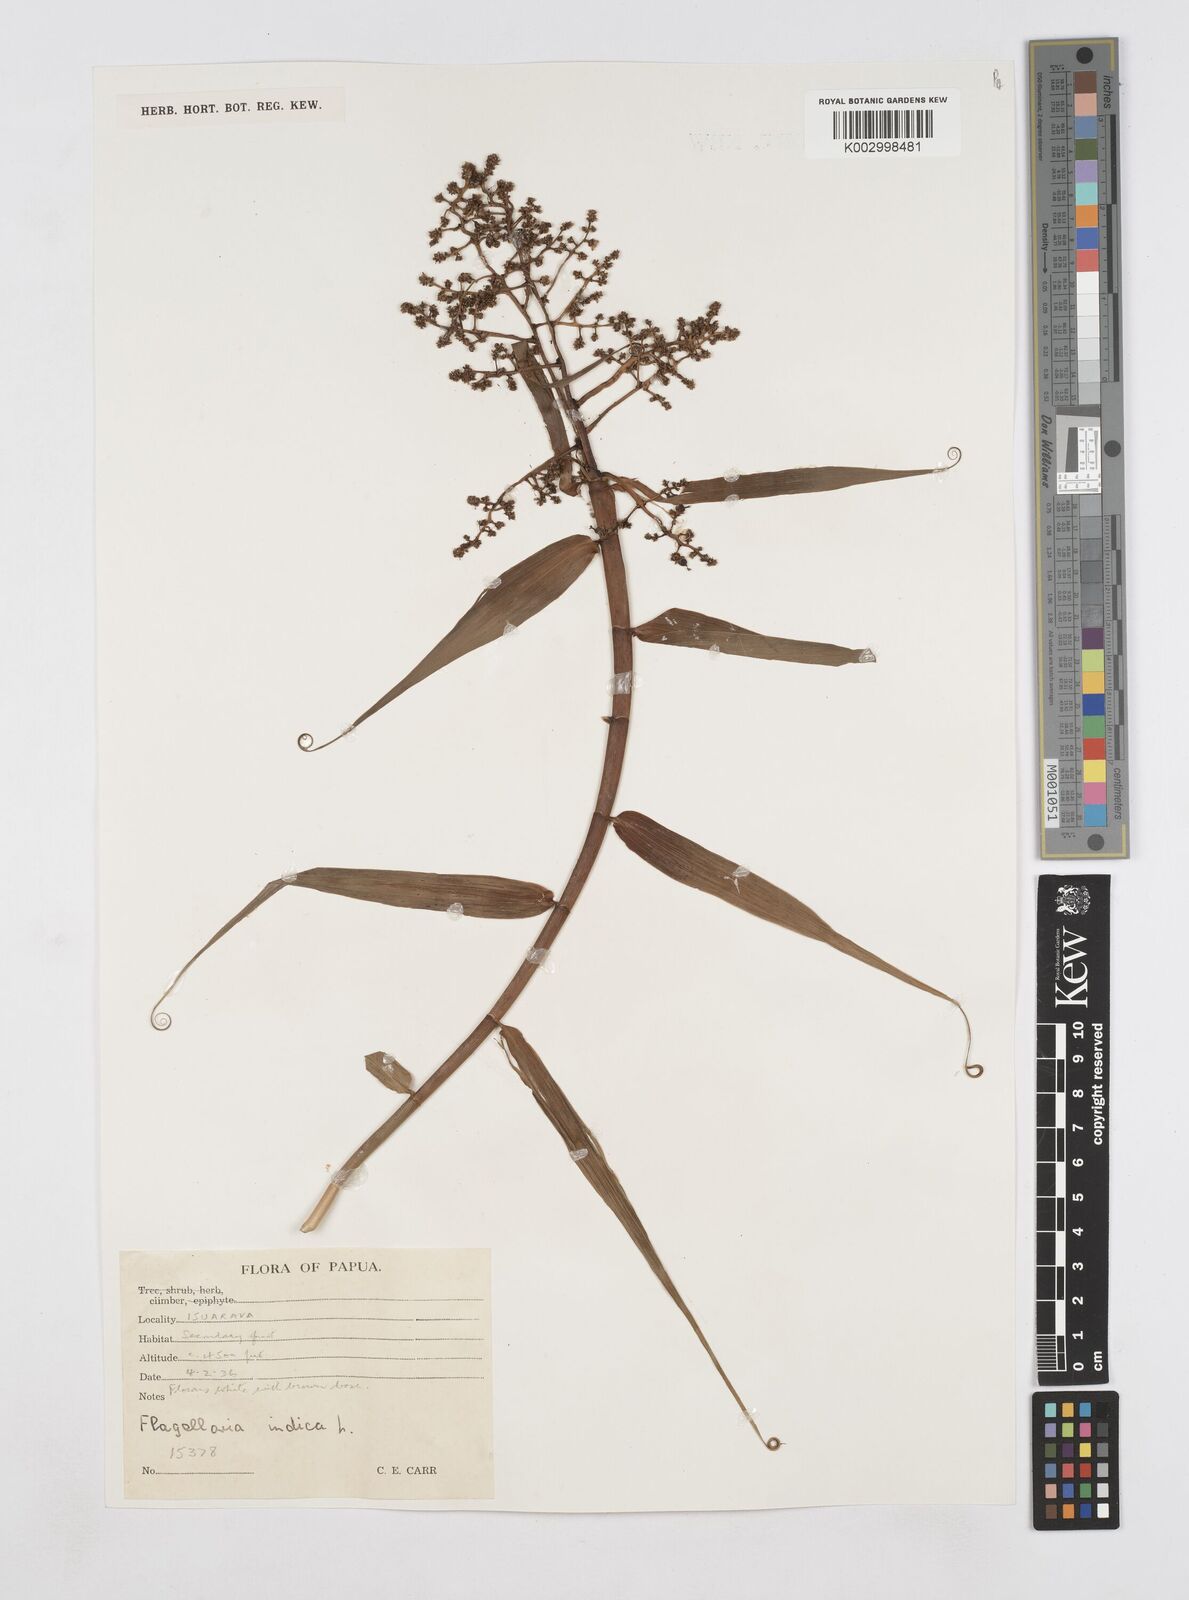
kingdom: Plantae
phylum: Tracheophyta
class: Liliopsida
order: Poales
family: Flagellariaceae
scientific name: Flagellariaceae
